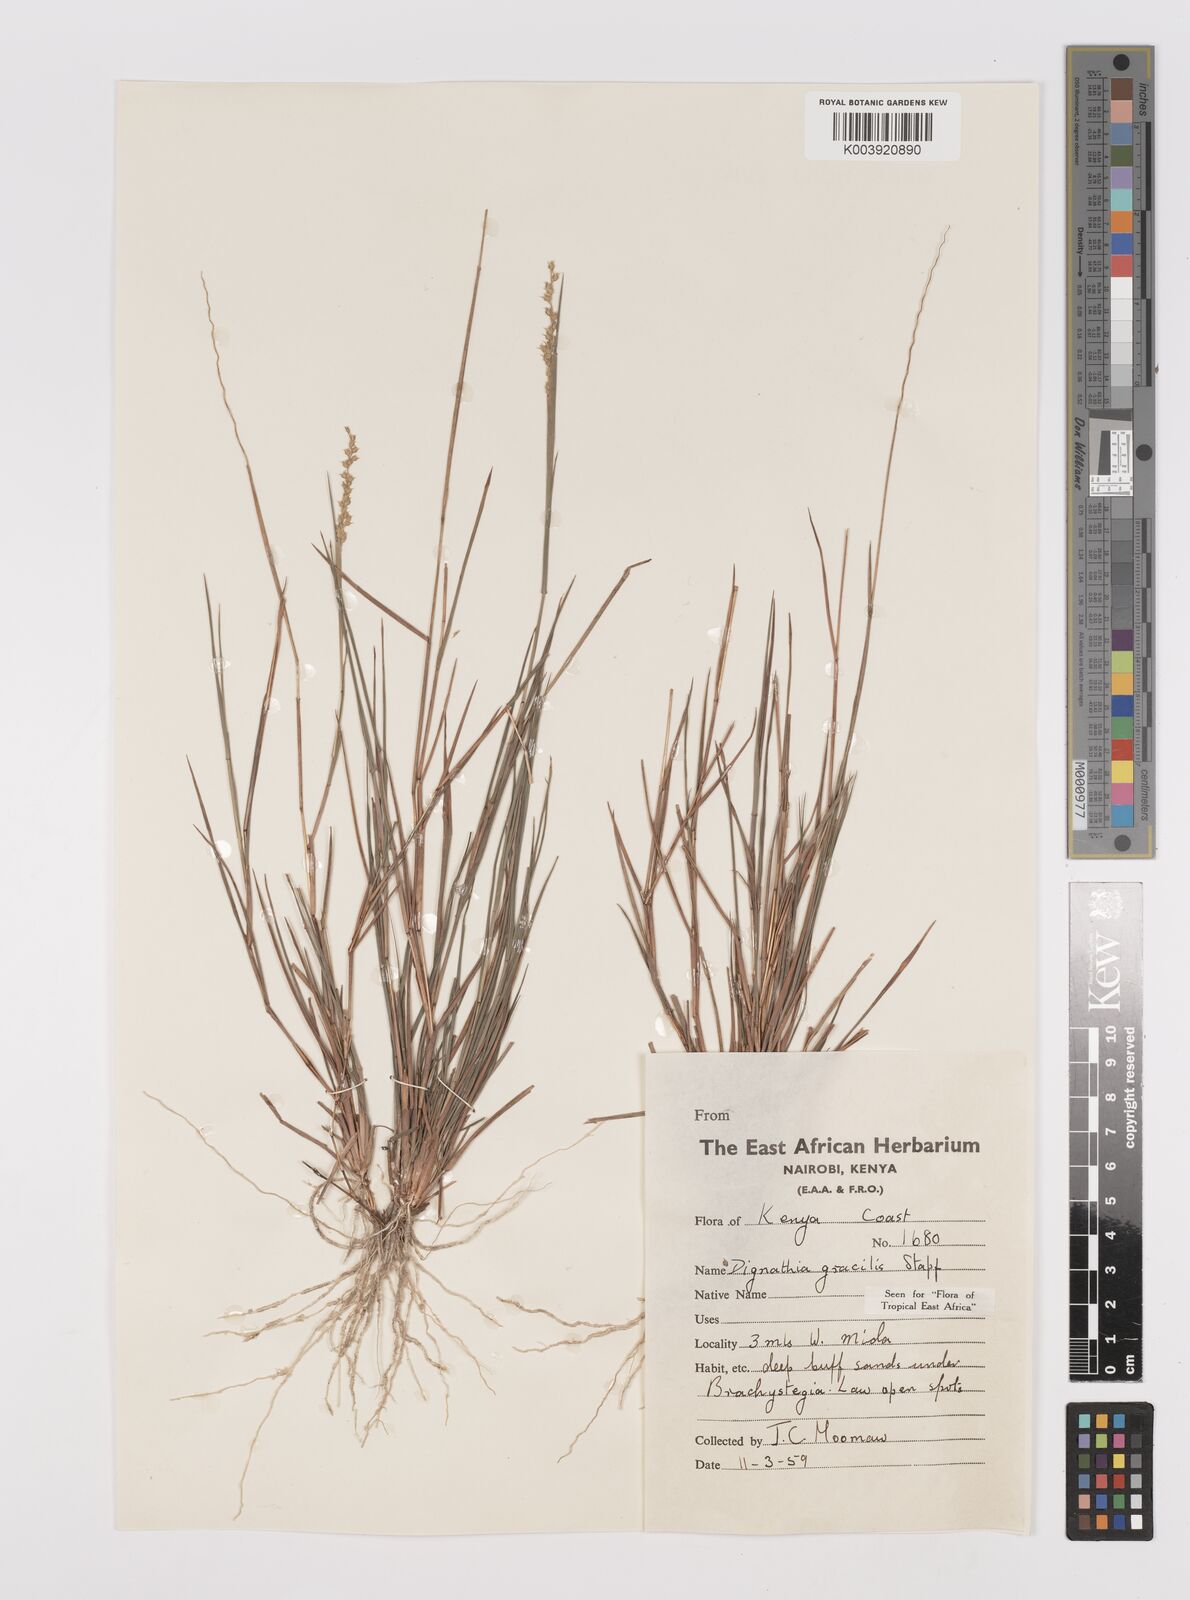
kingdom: Plantae
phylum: Tracheophyta
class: Liliopsida
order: Poales
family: Poaceae
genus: Dignathia
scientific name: Dignathia gracilis
